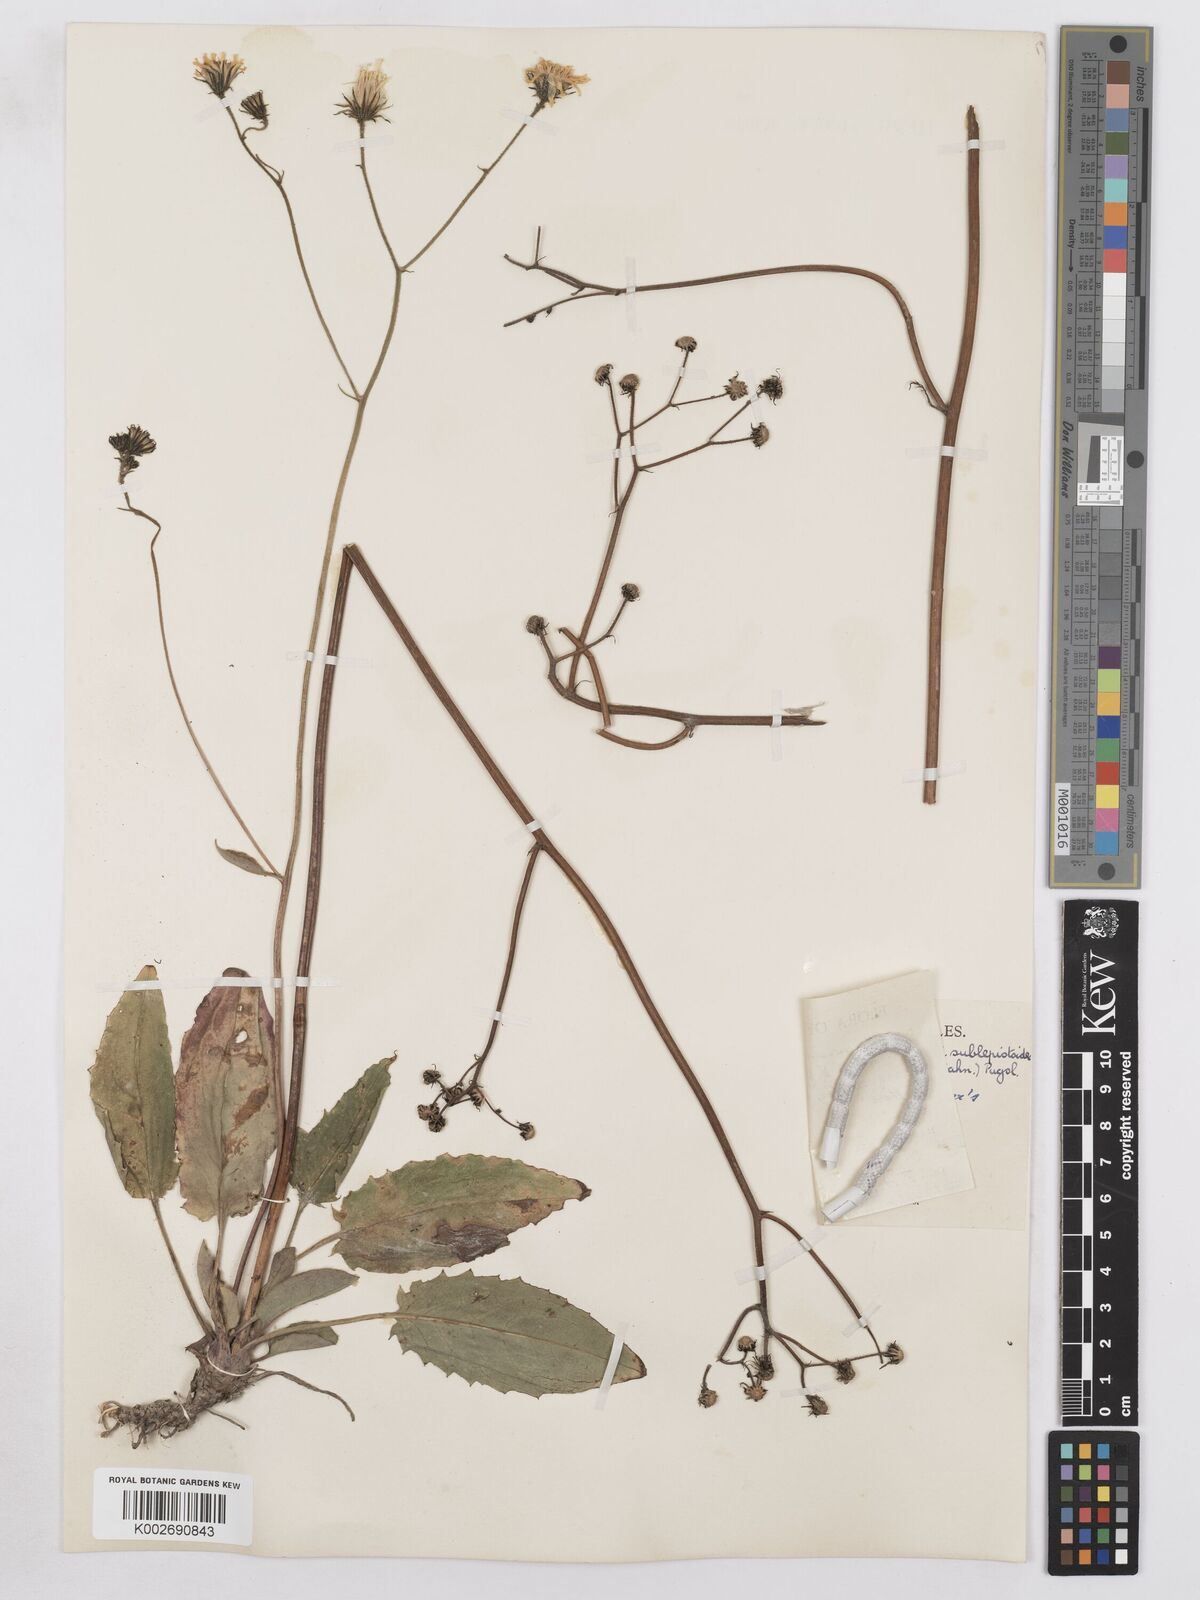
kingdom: Plantae
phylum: Tracheophyta
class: Magnoliopsida
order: Asterales
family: Asteraceae
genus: Hieracium
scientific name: Hieracium murorum
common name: Wall hawkweed
